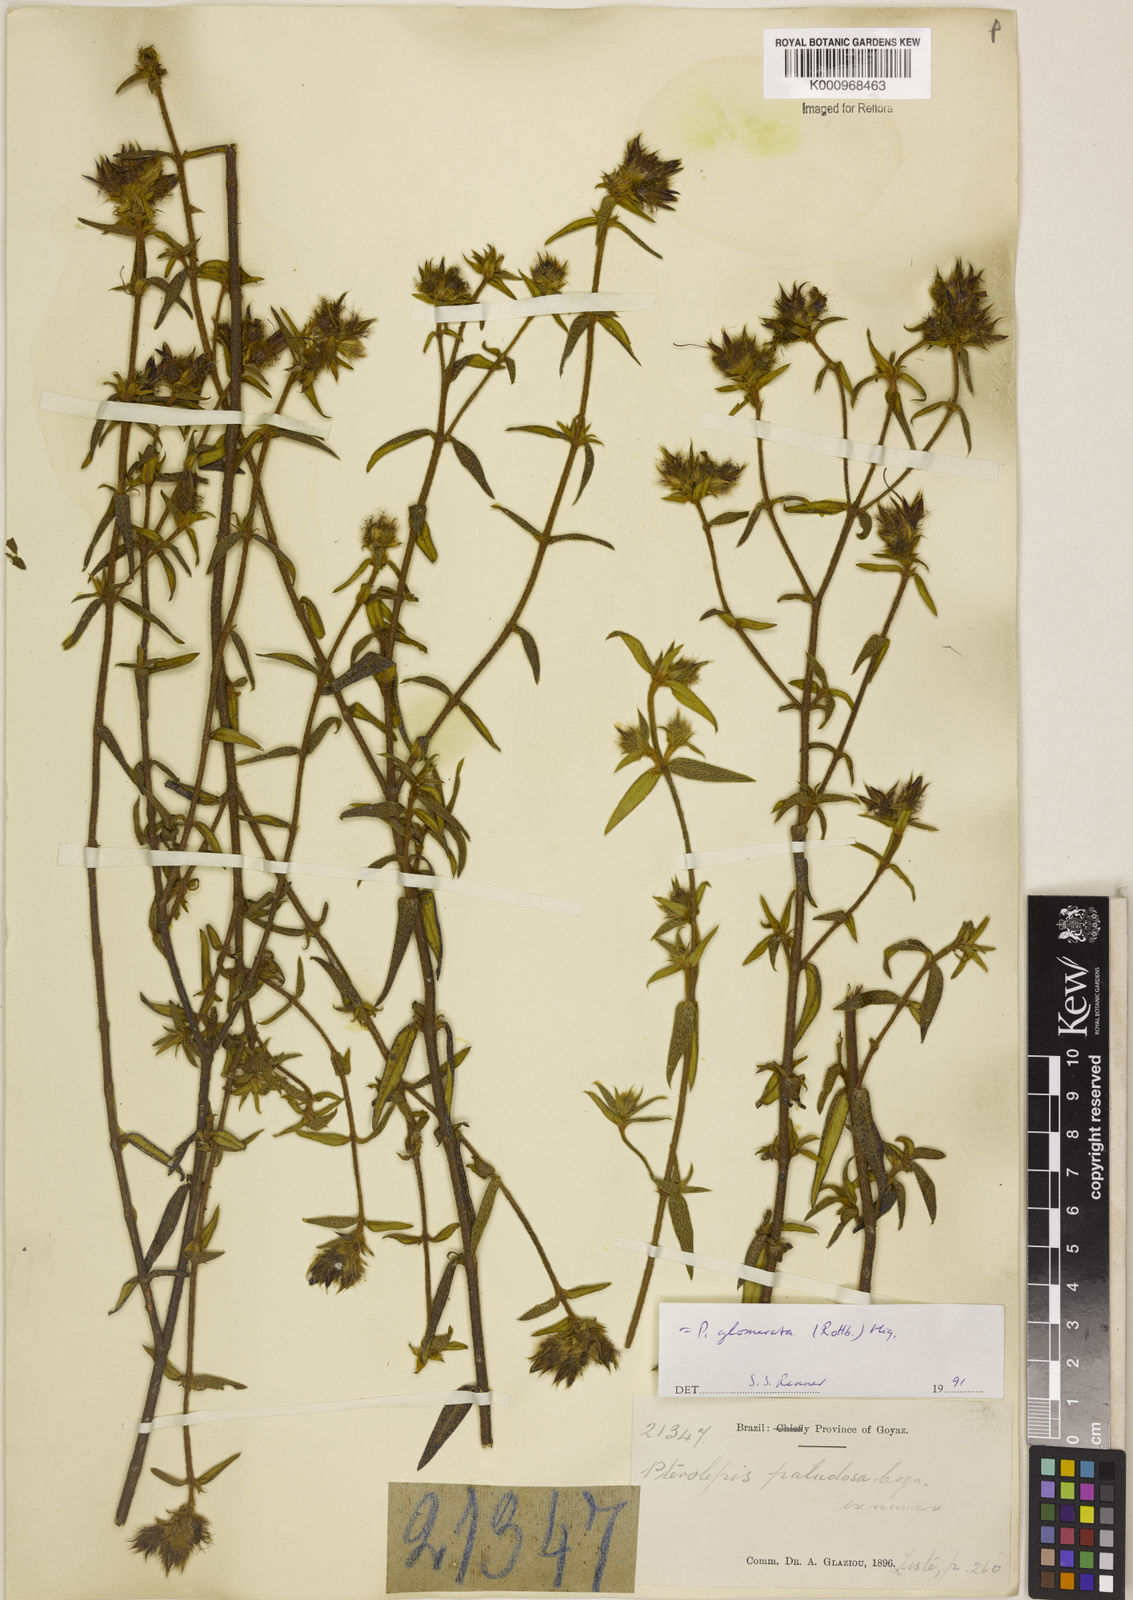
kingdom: Plantae
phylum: Tracheophyta
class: Magnoliopsida
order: Myrtales
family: Melastomataceae
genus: Pterolepis
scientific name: Pterolepis glomerata
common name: False meadowbeauty
